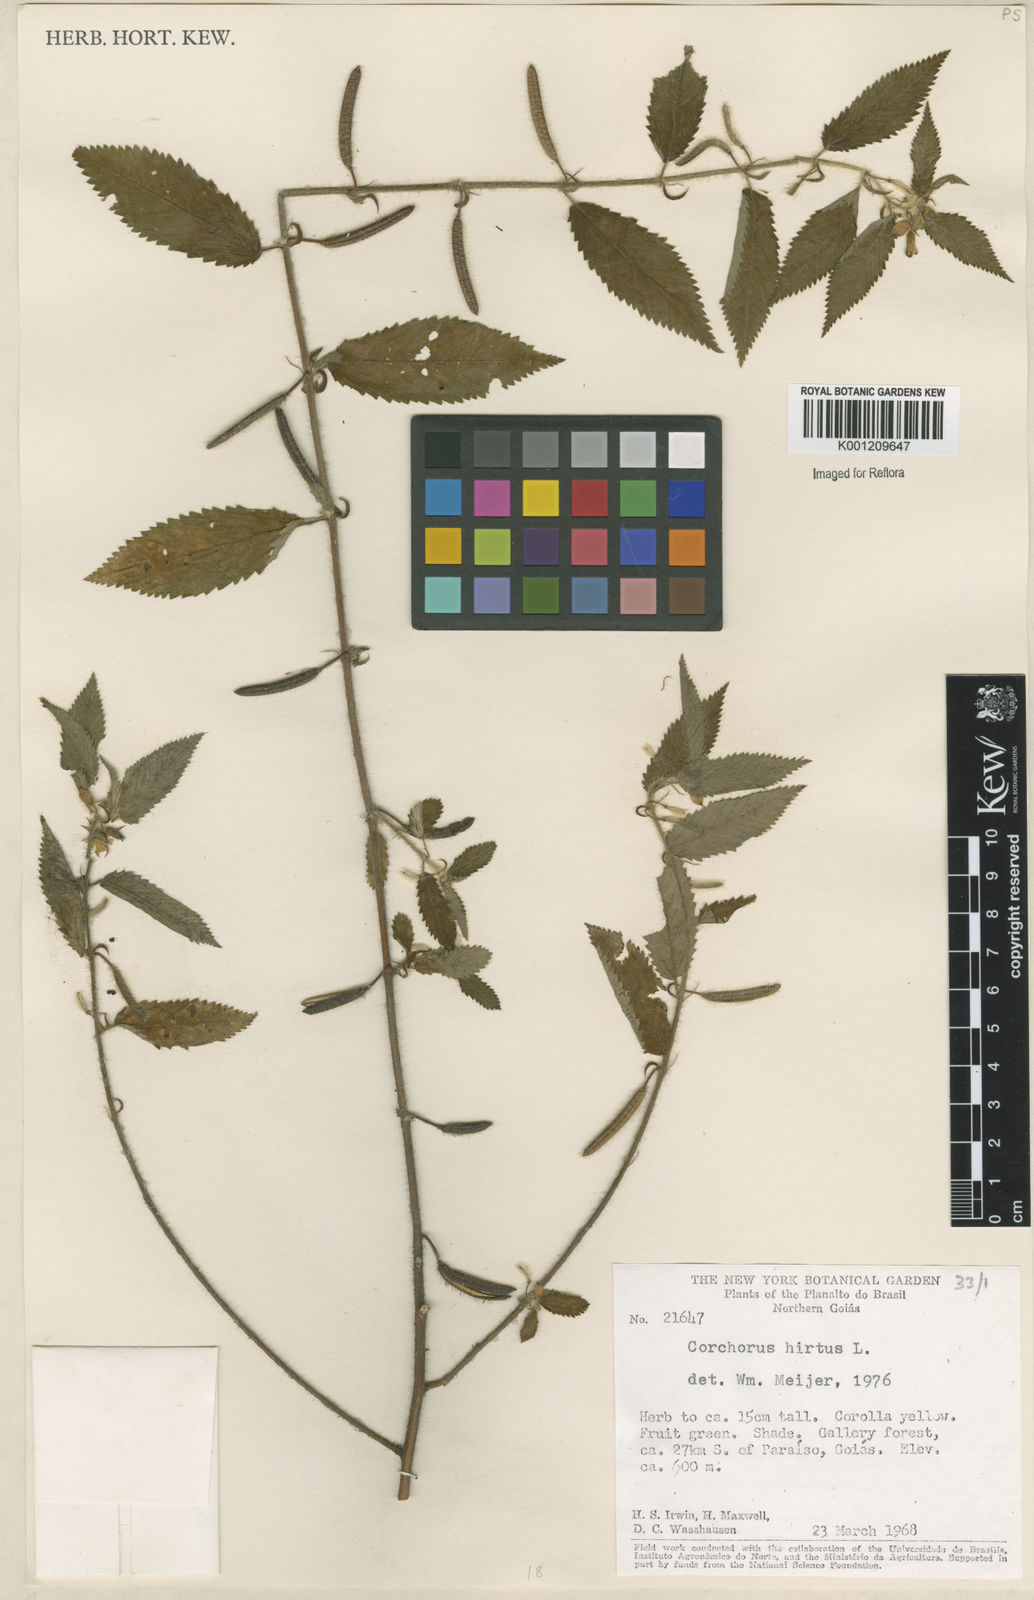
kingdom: Plantae
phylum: Tracheophyta
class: Magnoliopsida
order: Malvales
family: Malvaceae
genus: Corchorus
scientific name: Corchorus hirtus
